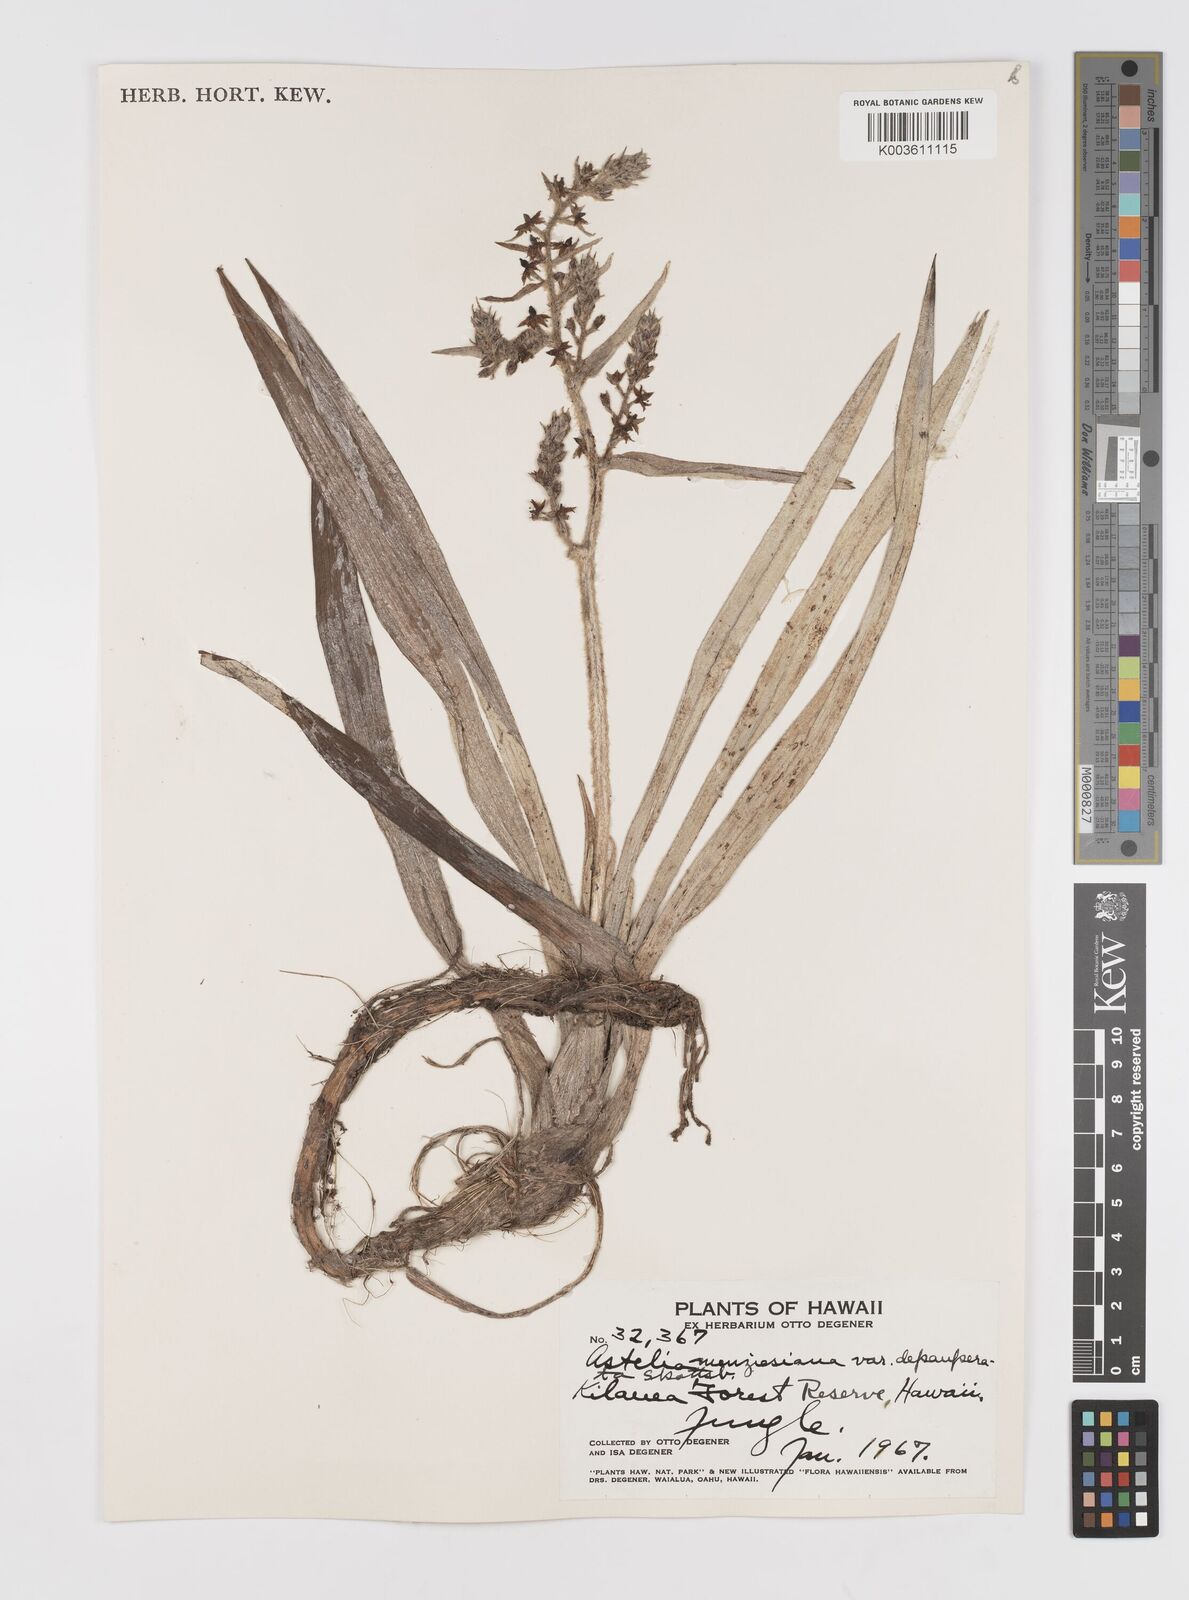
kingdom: Plantae
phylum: Tracheophyta
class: Liliopsida
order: Asparagales
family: Asteliaceae
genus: Astelia
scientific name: Astelia menziesiana
